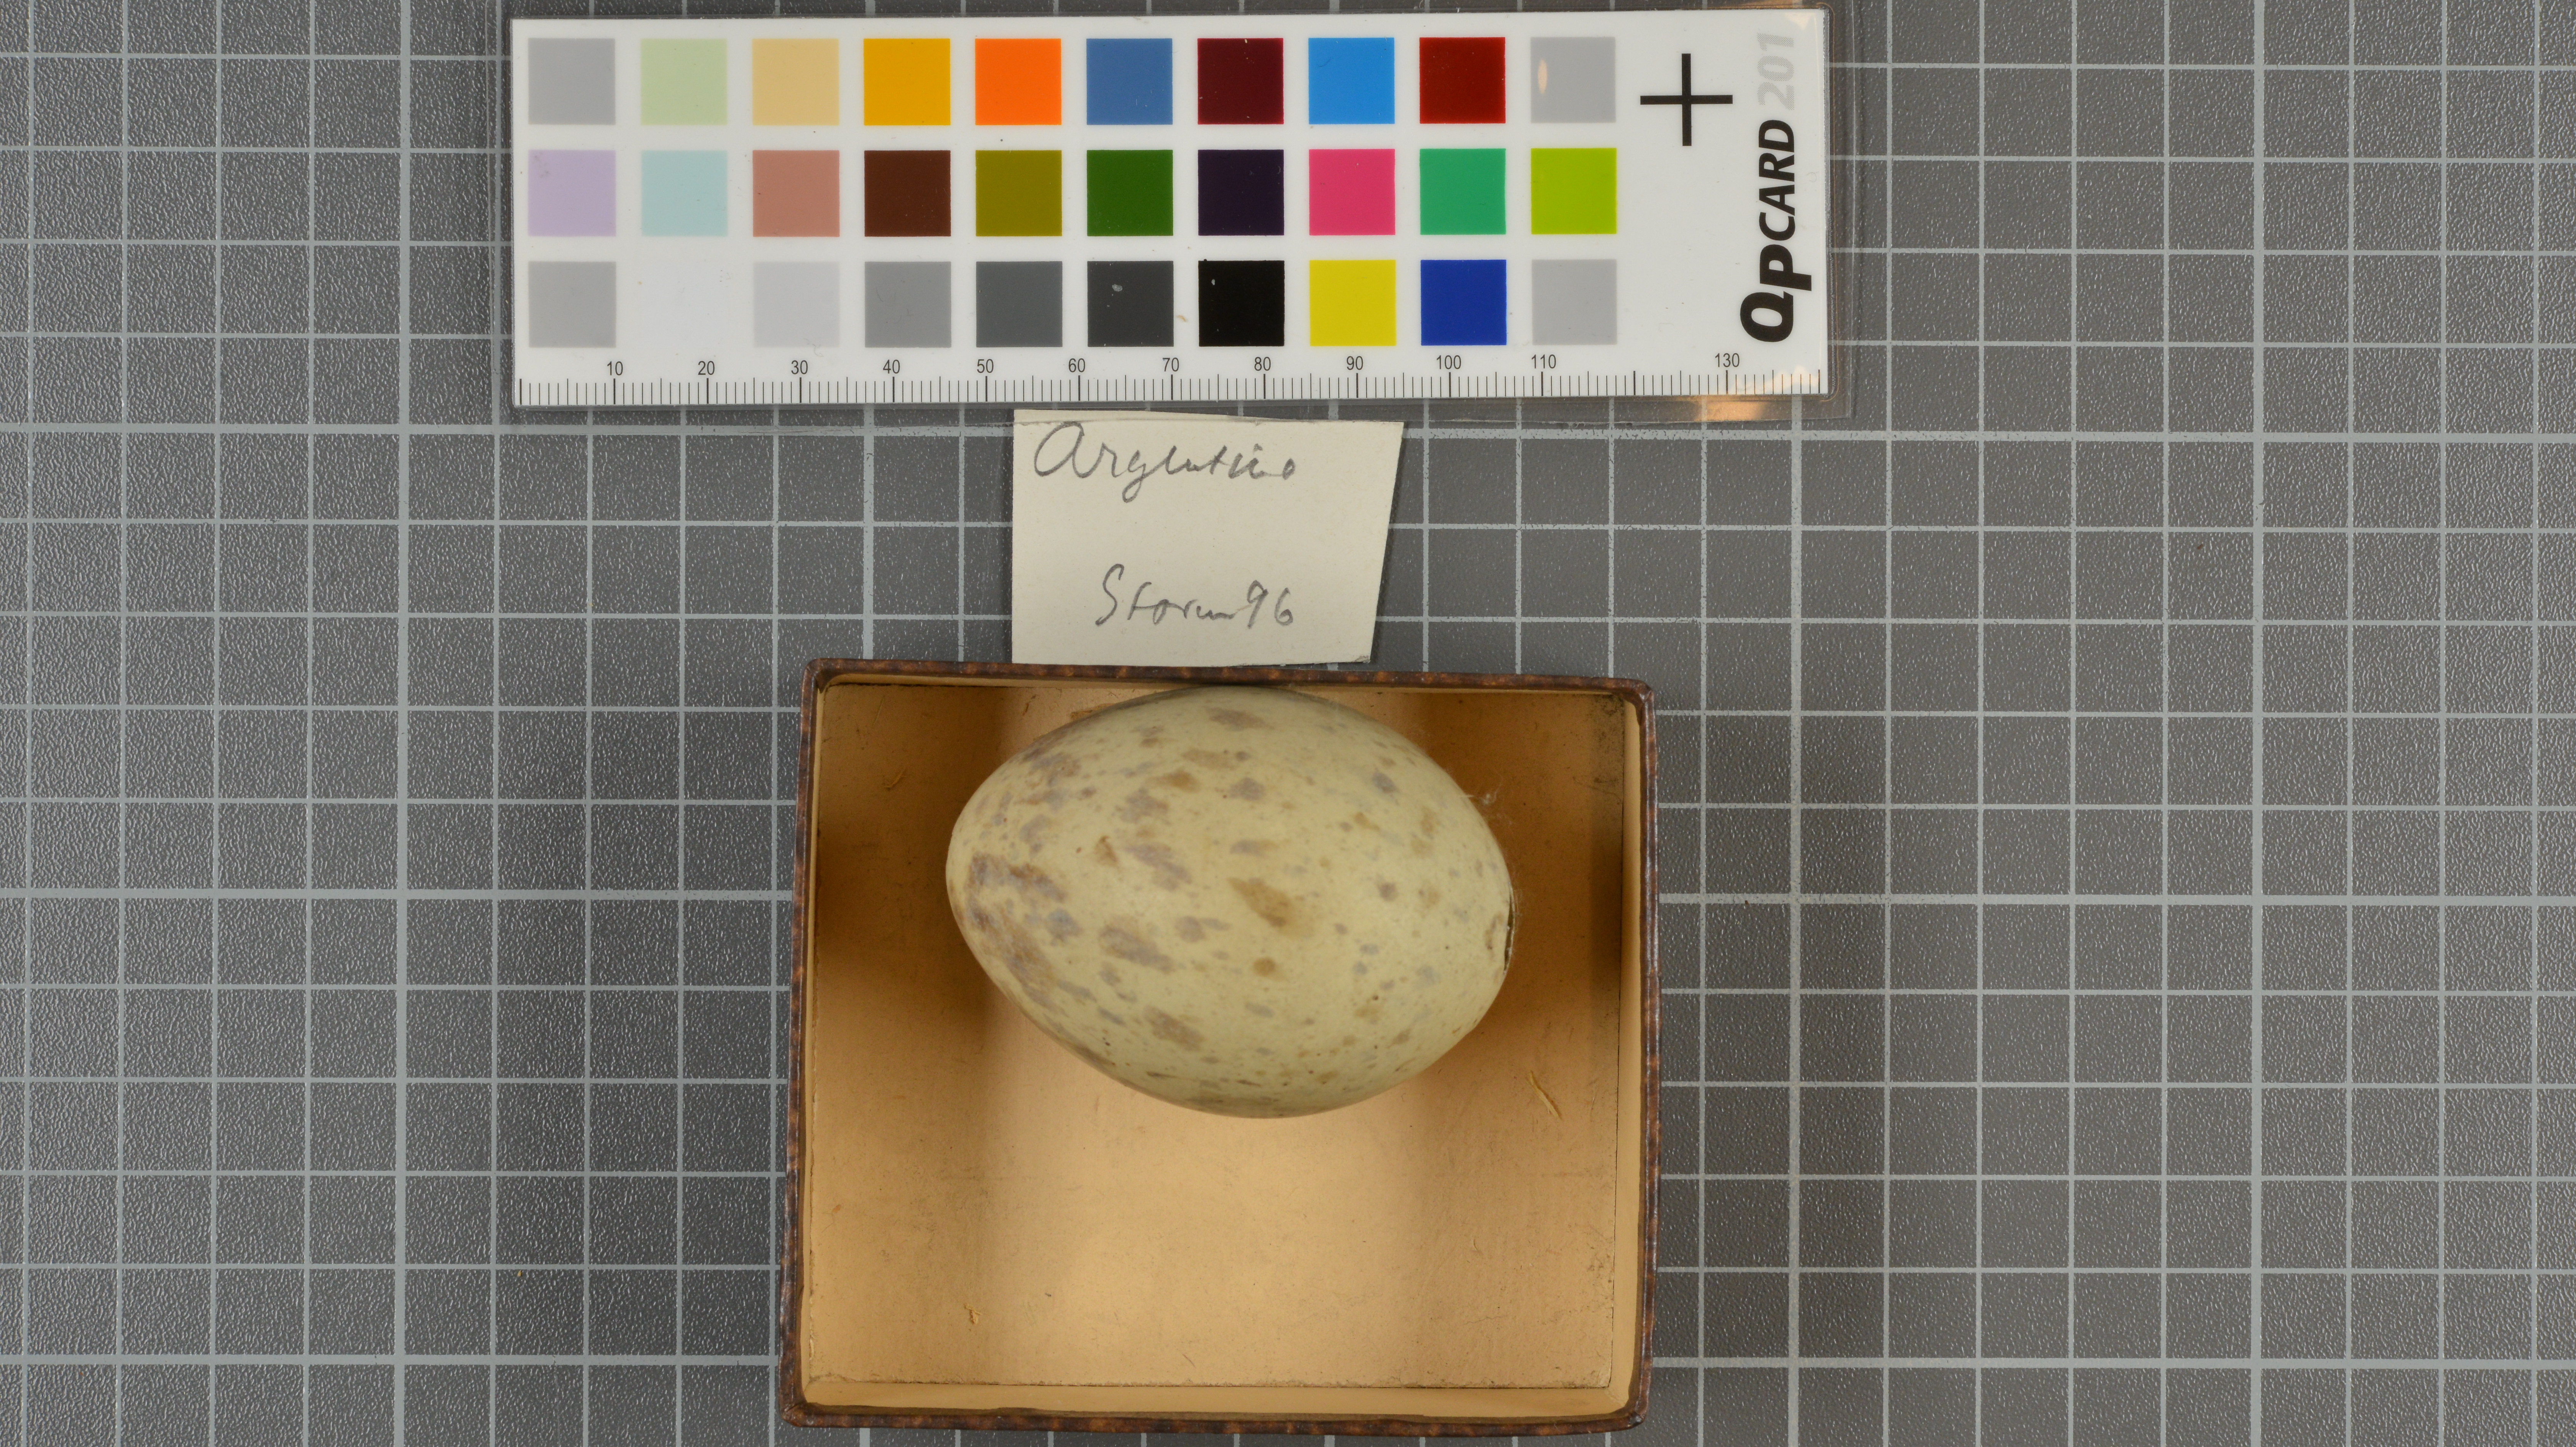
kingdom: Animalia
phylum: Chordata
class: Aves
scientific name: Aves
